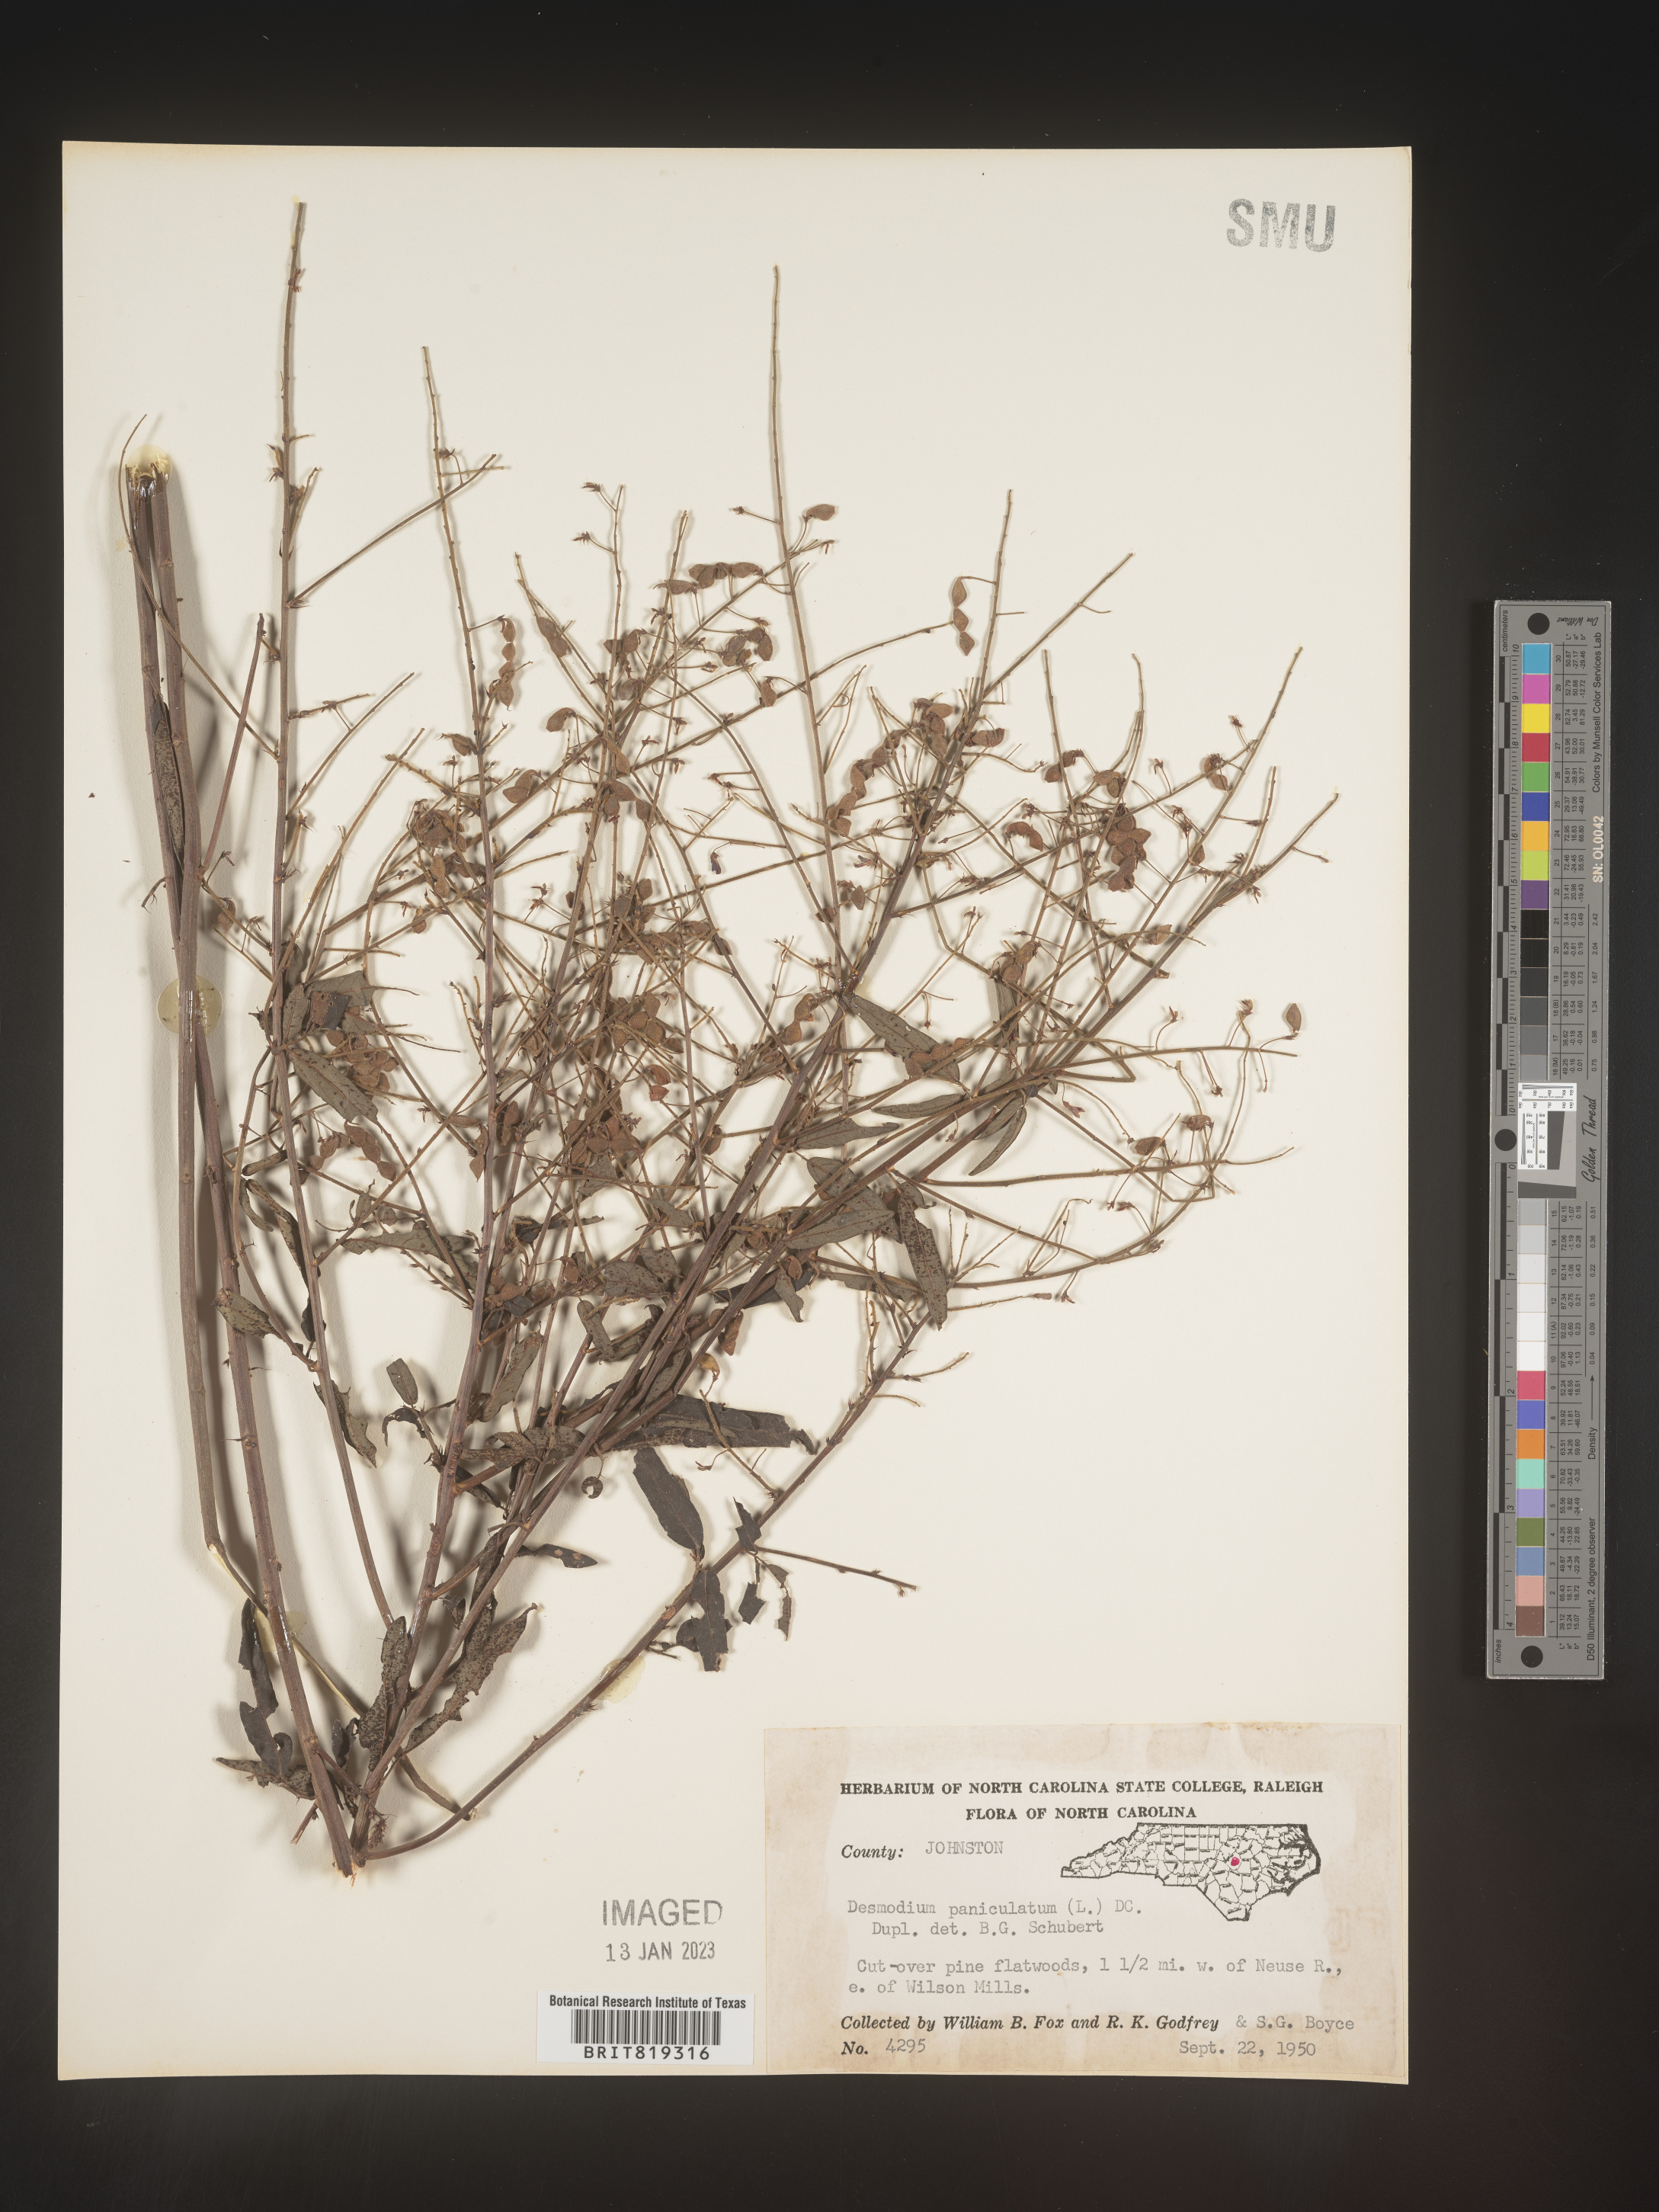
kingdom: Plantae
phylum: Tracheophyta
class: Magnoliopsida
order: Fabales
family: Fabaceae
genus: Desmodium
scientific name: Desmodium paniculatum
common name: Panicled tick-clover
